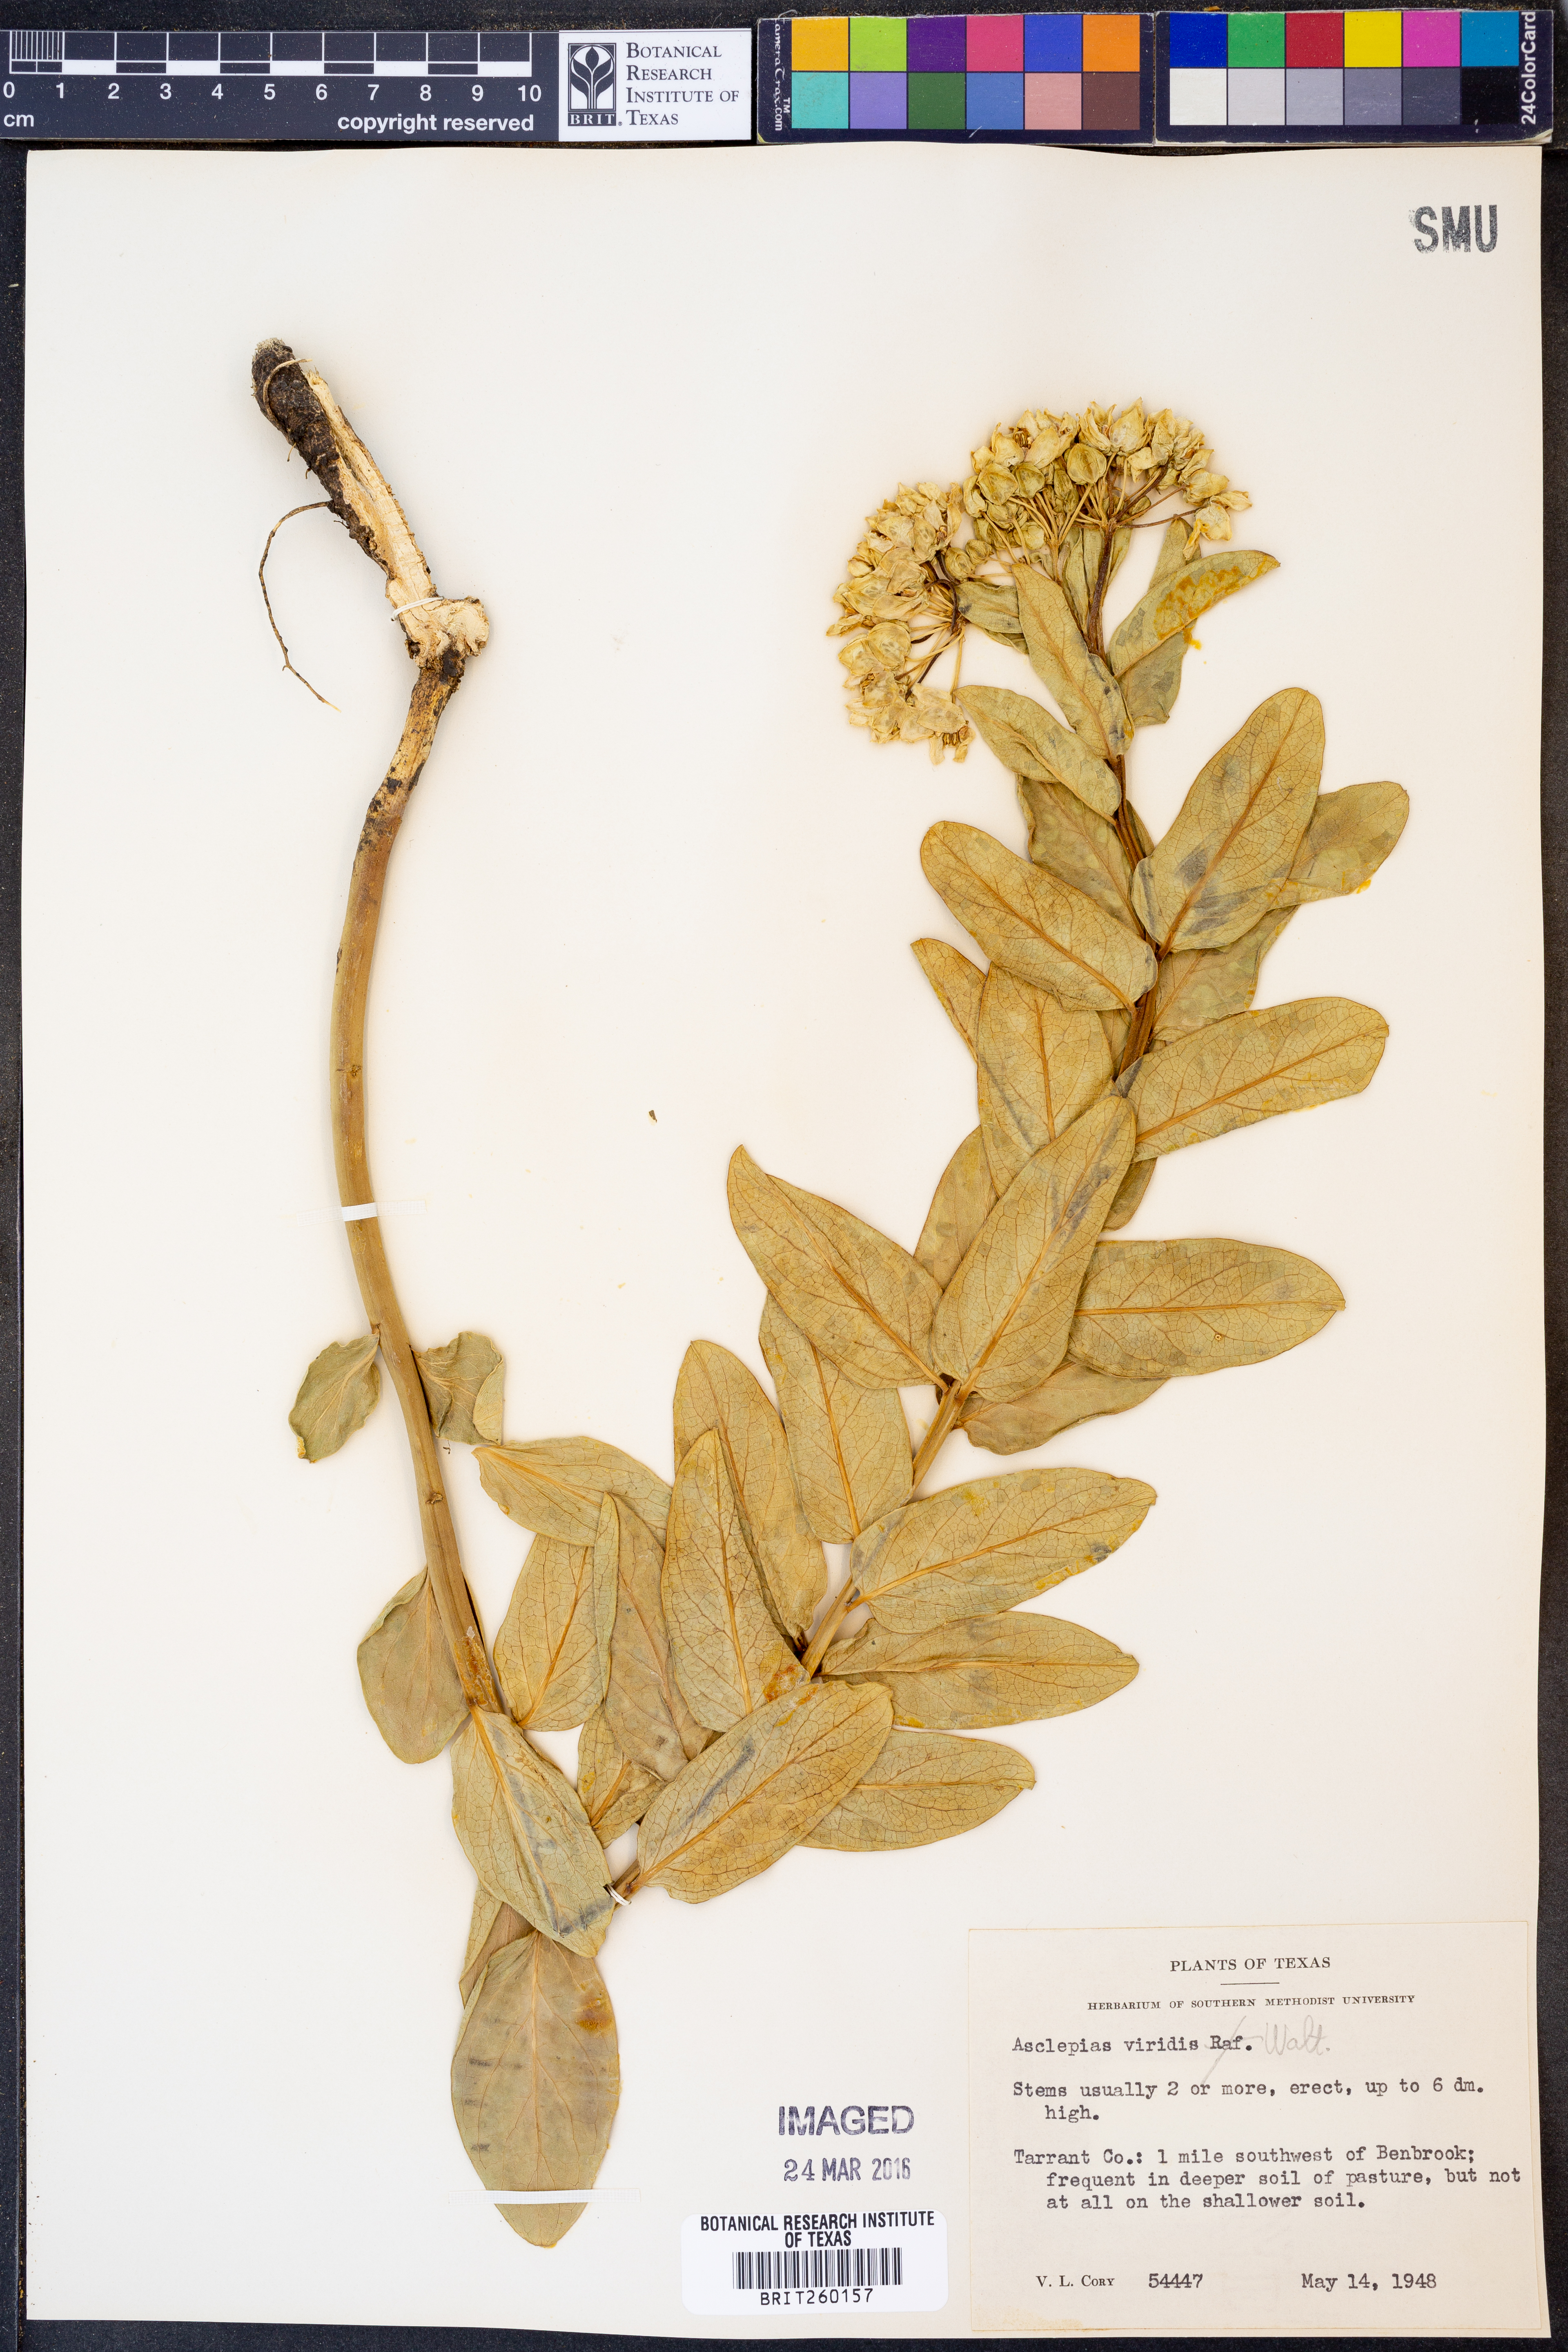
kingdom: Plantae
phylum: Tracheophyta
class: Magnoliopsida
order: Gentianales
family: Apocynaceae
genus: Asclepias
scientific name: Asclepias viridis
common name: Antelope-horns
